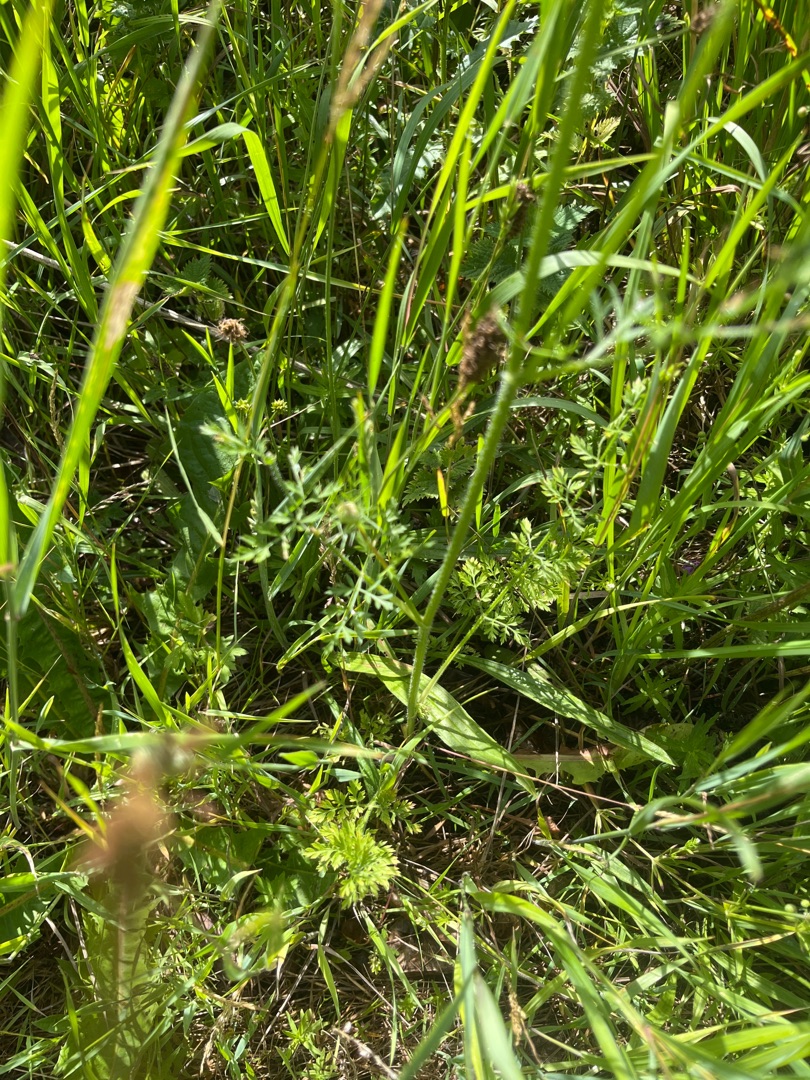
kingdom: Plantae
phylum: Tracheophyta
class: Magnoliopsida
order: Apiales
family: Apiaceae
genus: Daucus
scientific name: Daucus carota
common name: Gulerod
